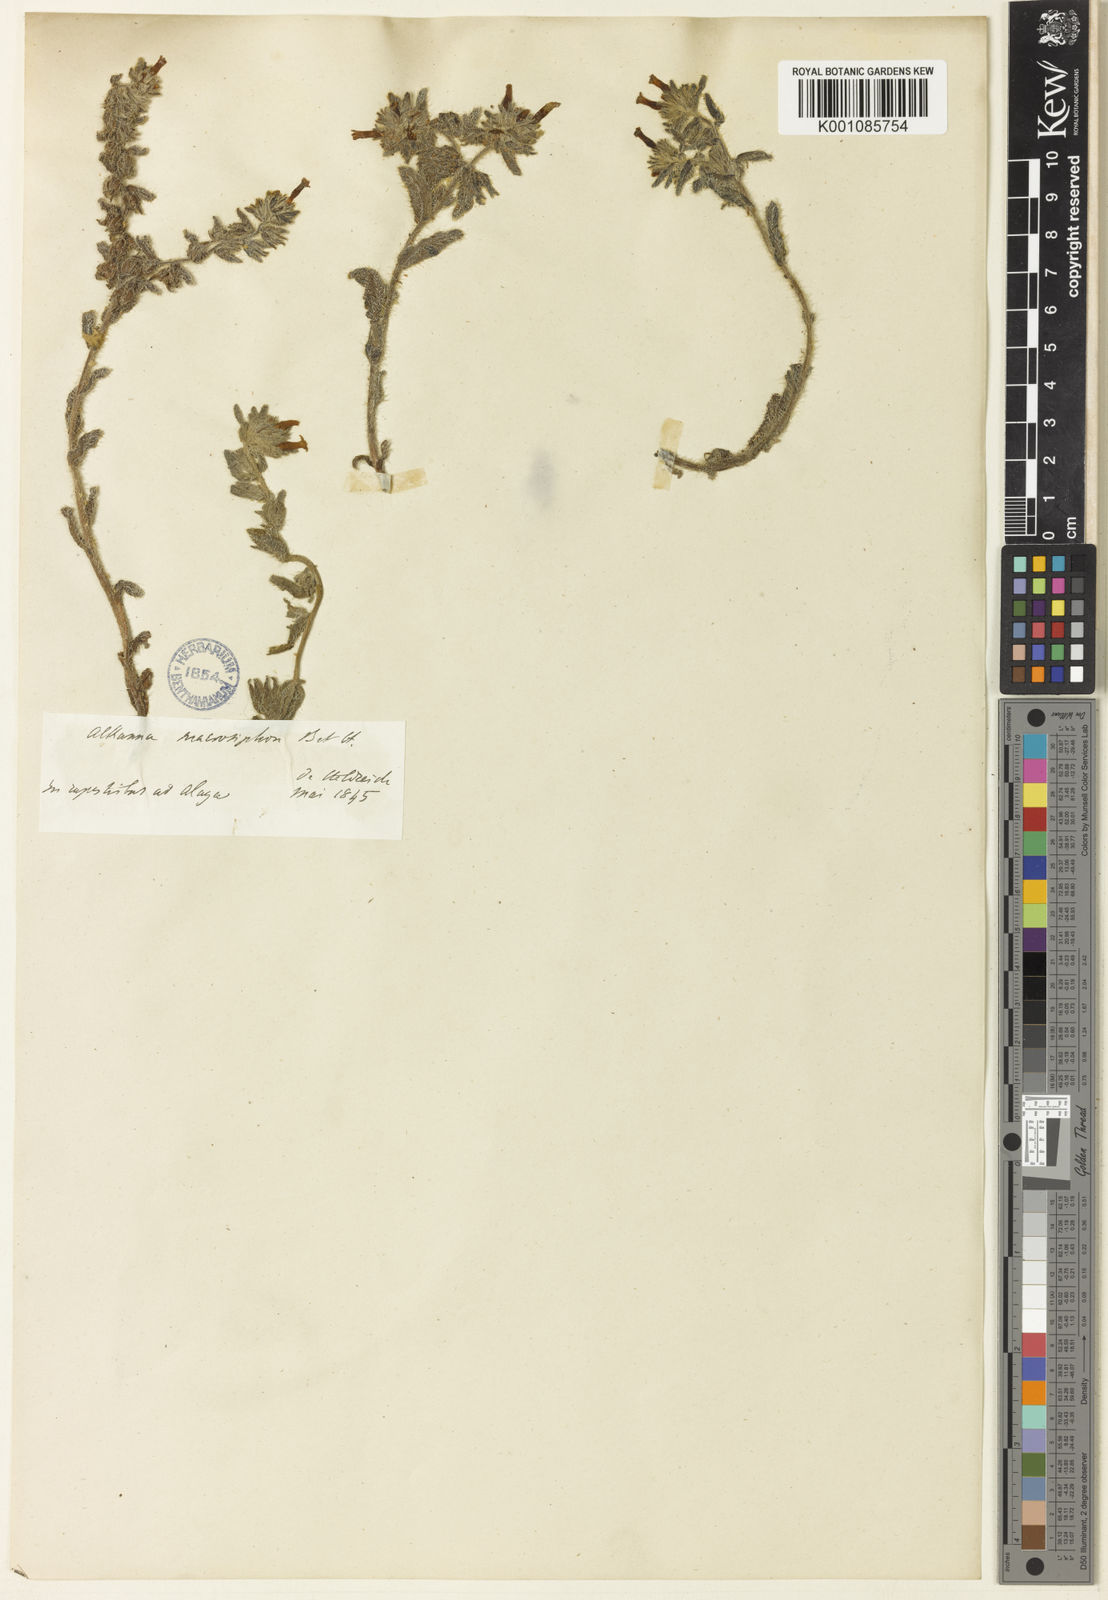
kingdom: Plantae
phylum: Tracheophyta
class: Magnoliopsida
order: Boraginales
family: Boraginaceae
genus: Alkanna
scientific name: Alkanna macrosiphon
